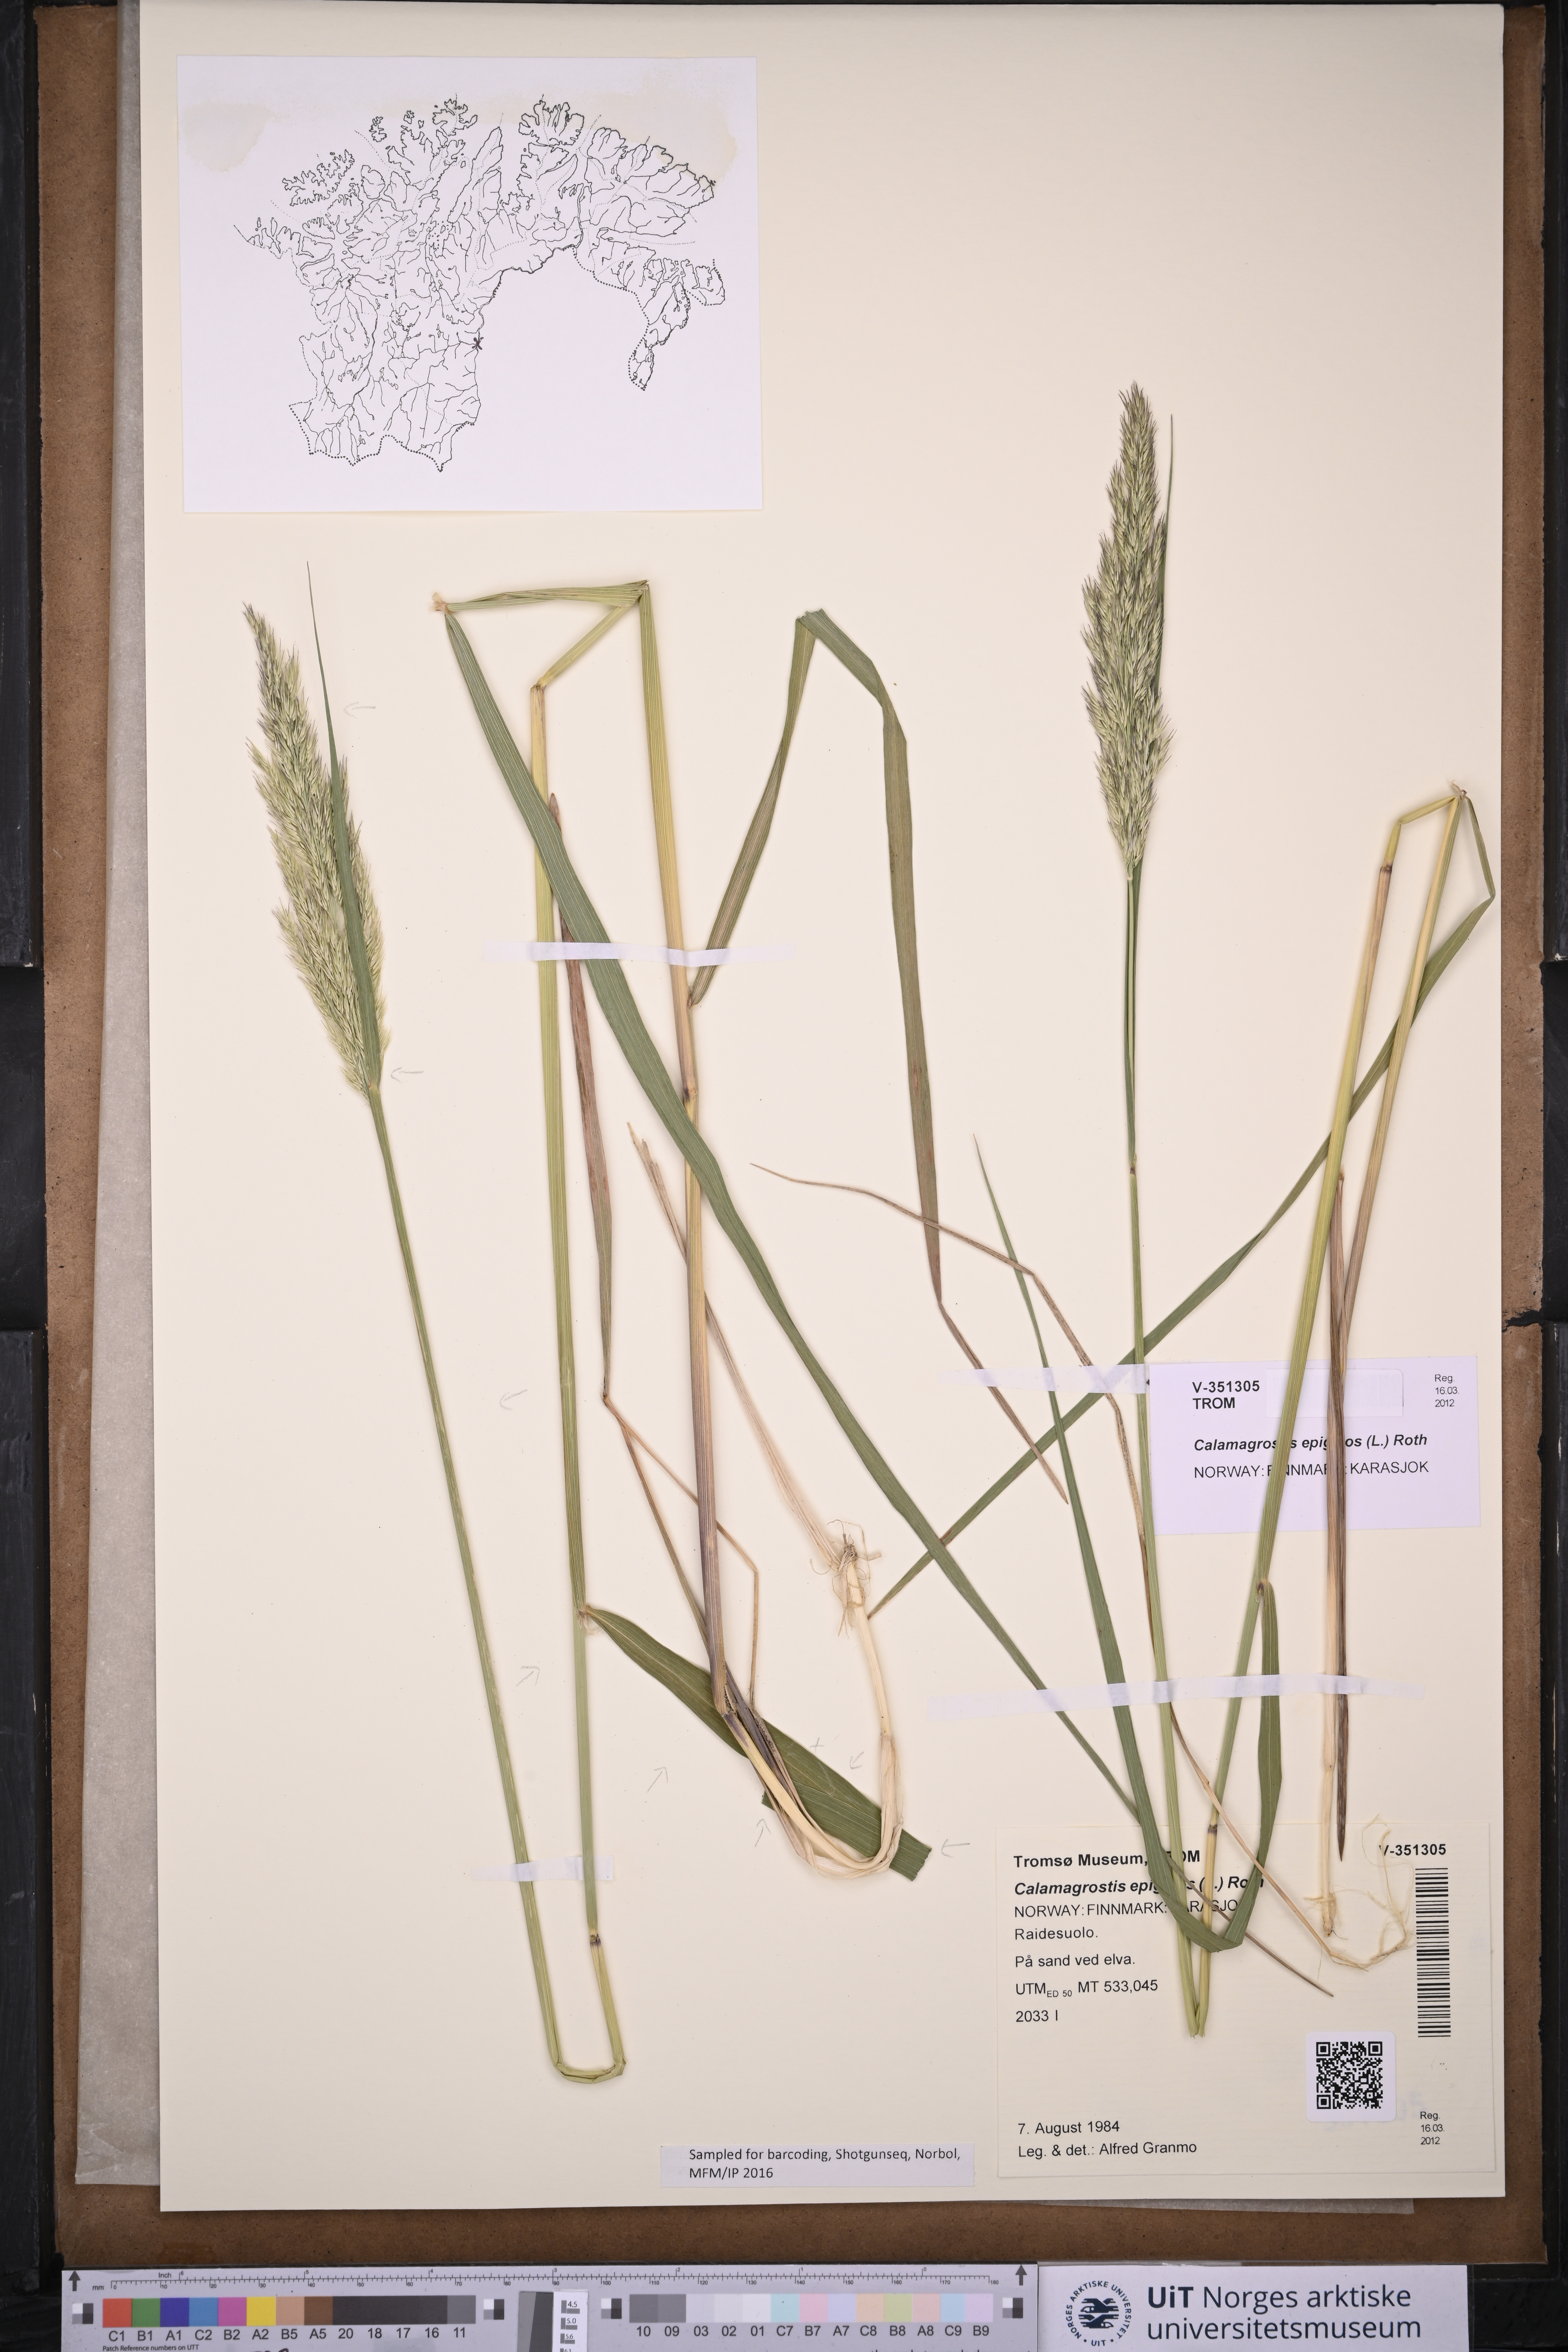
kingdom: Plantae
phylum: Tracheophyta
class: Liliopsida
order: Poales
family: Poaceae
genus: Calamagrostis
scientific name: Calamagrostis epigejos
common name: Wood small-reed
